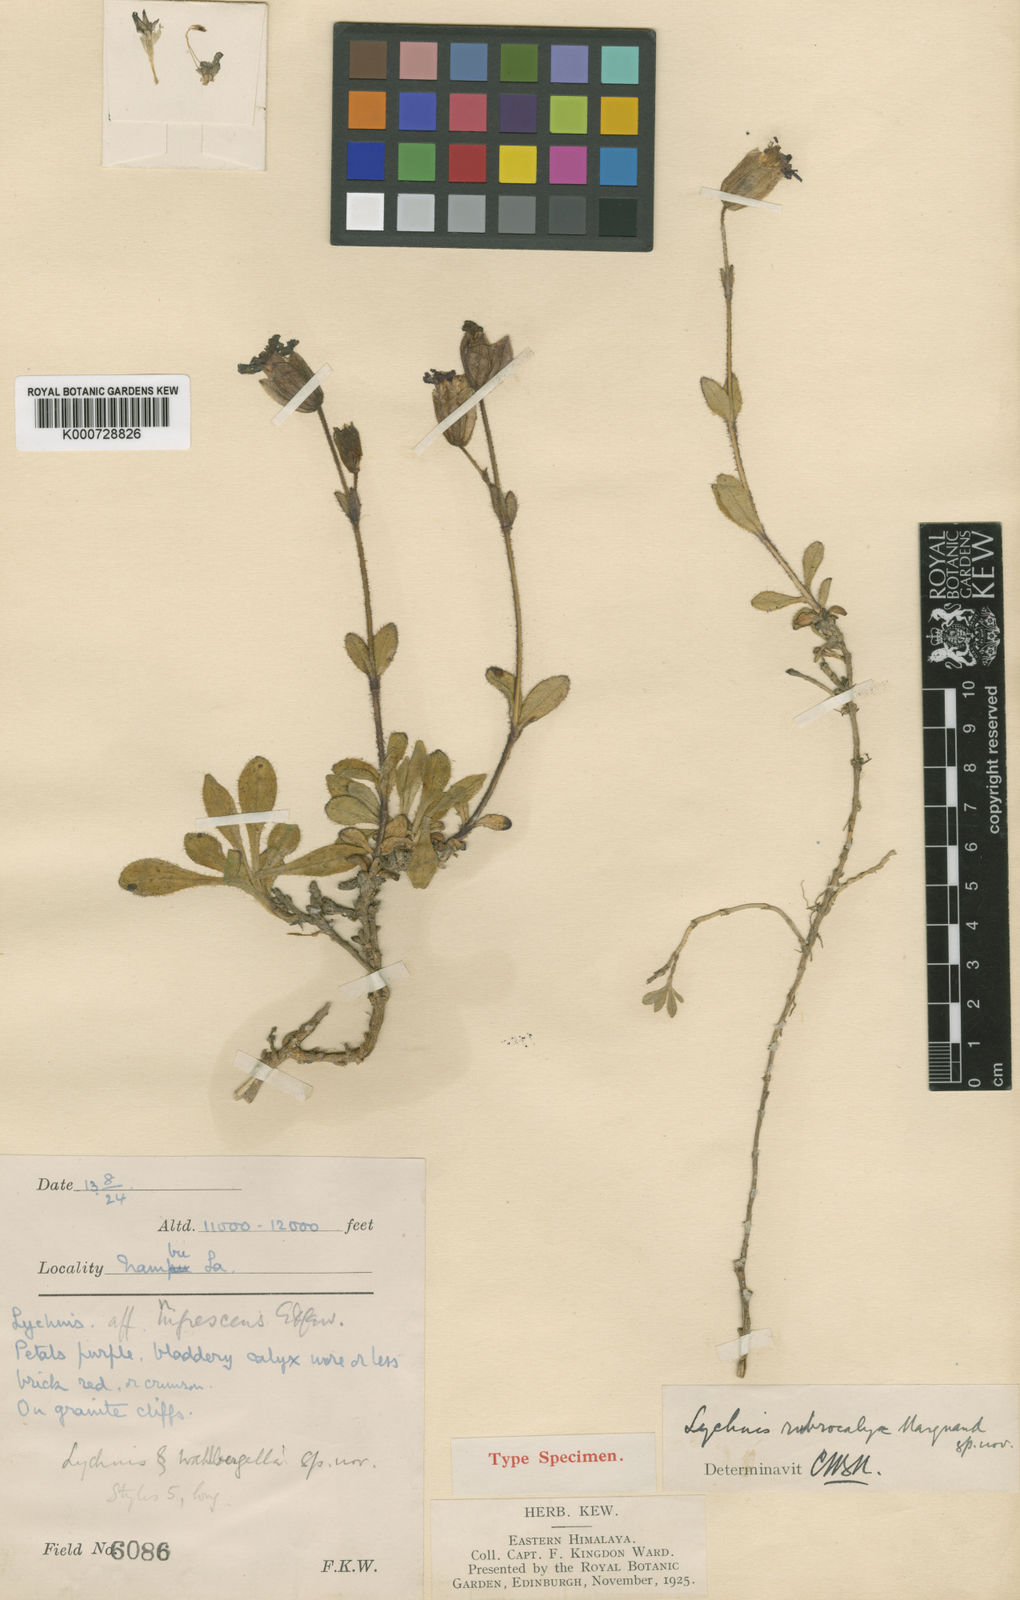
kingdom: Plantae
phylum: Tracheophyta
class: Magnoliopsida
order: Caryophyllales
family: Caryophyllaceae
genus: Silene
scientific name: Silene rubricalyx
